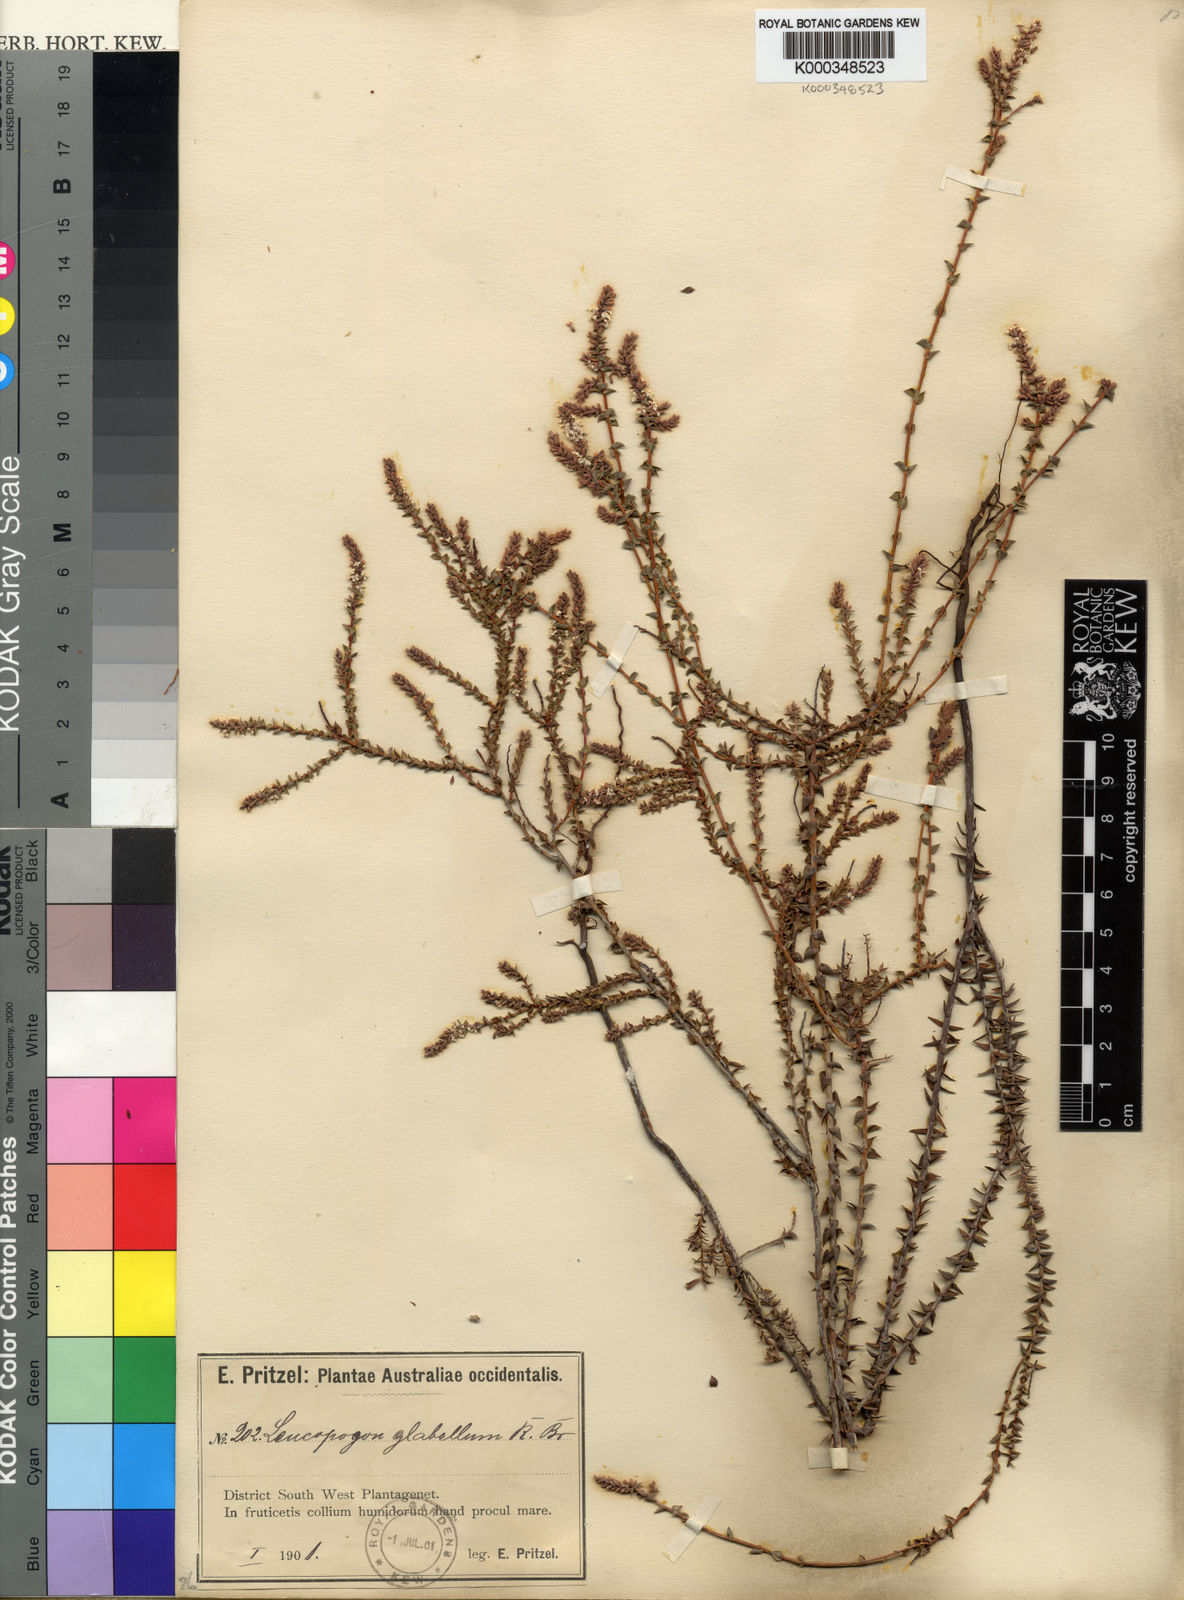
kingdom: Plantae
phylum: Tracheophyta
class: Magnoliopsida
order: Ericales
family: Ericaceae
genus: Leucopogon
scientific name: Leucopogon glabellus
